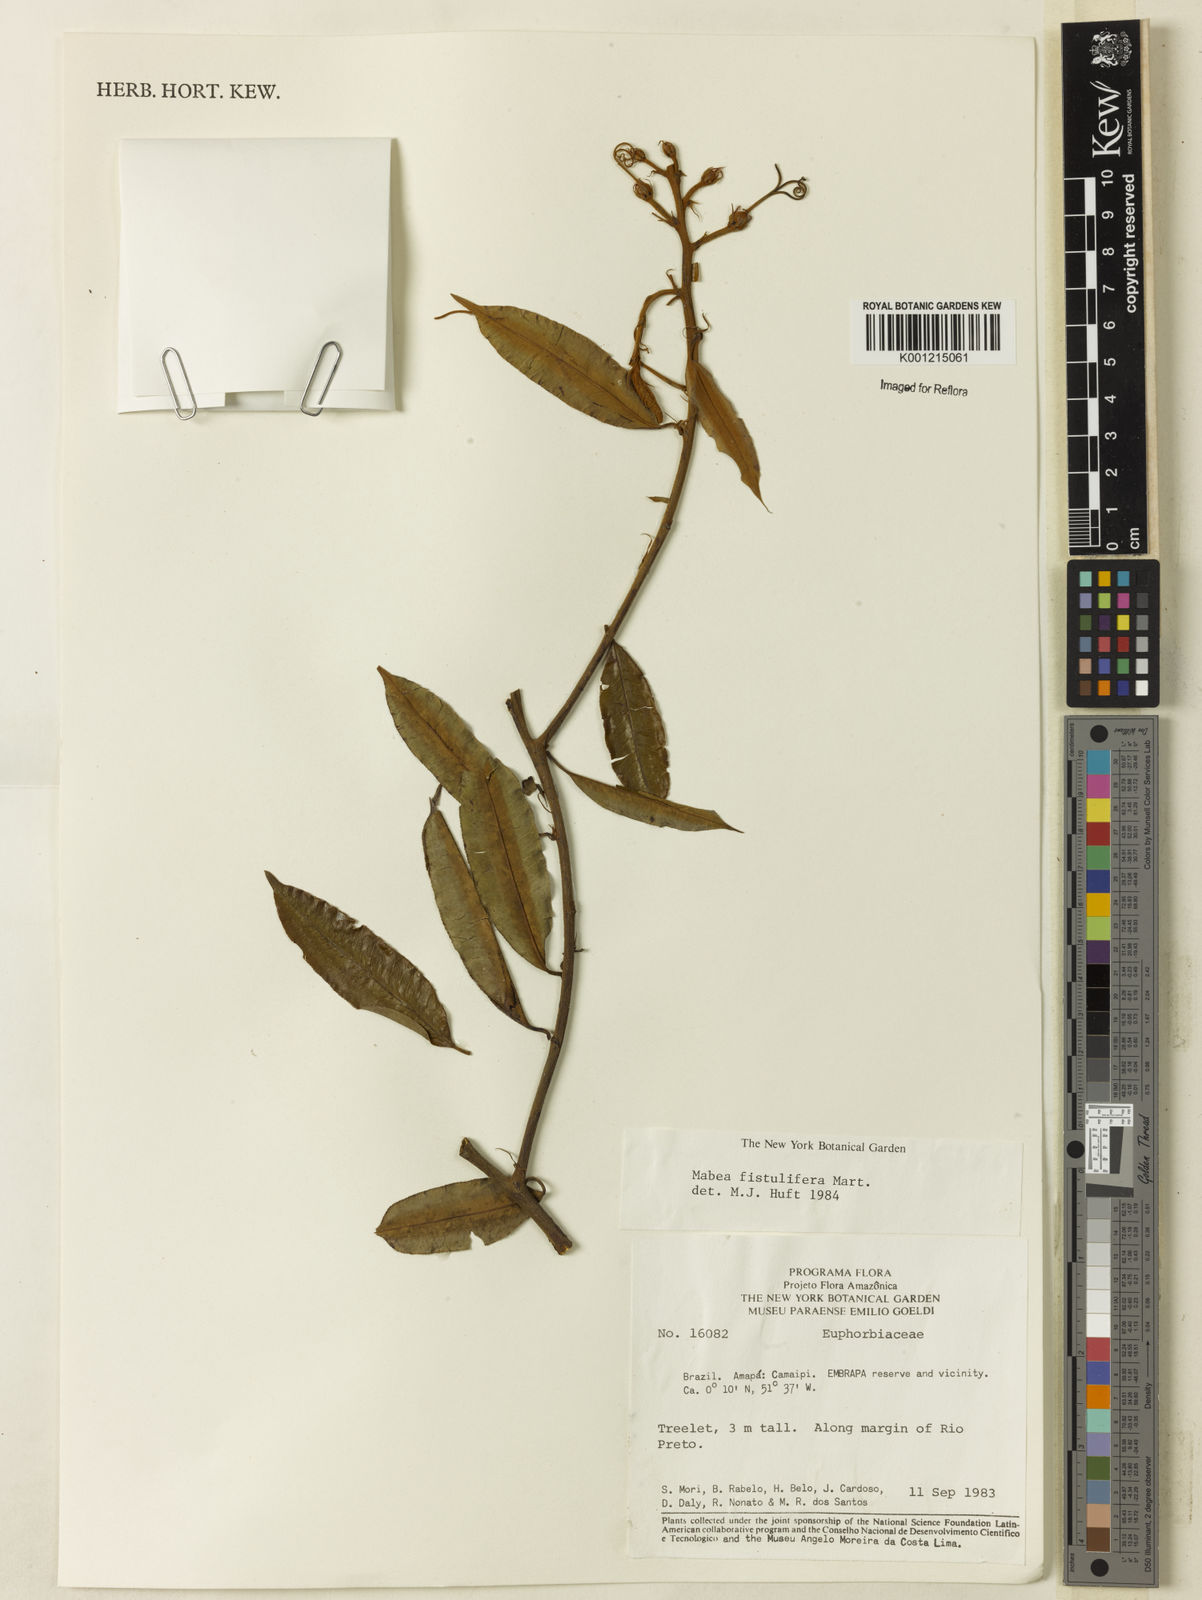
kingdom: Plantae
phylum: Tracheophyta
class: Magnoliopsida
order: Malpighiales
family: Euphorbiaceae
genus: Mabea
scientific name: Mabea fistulifera
